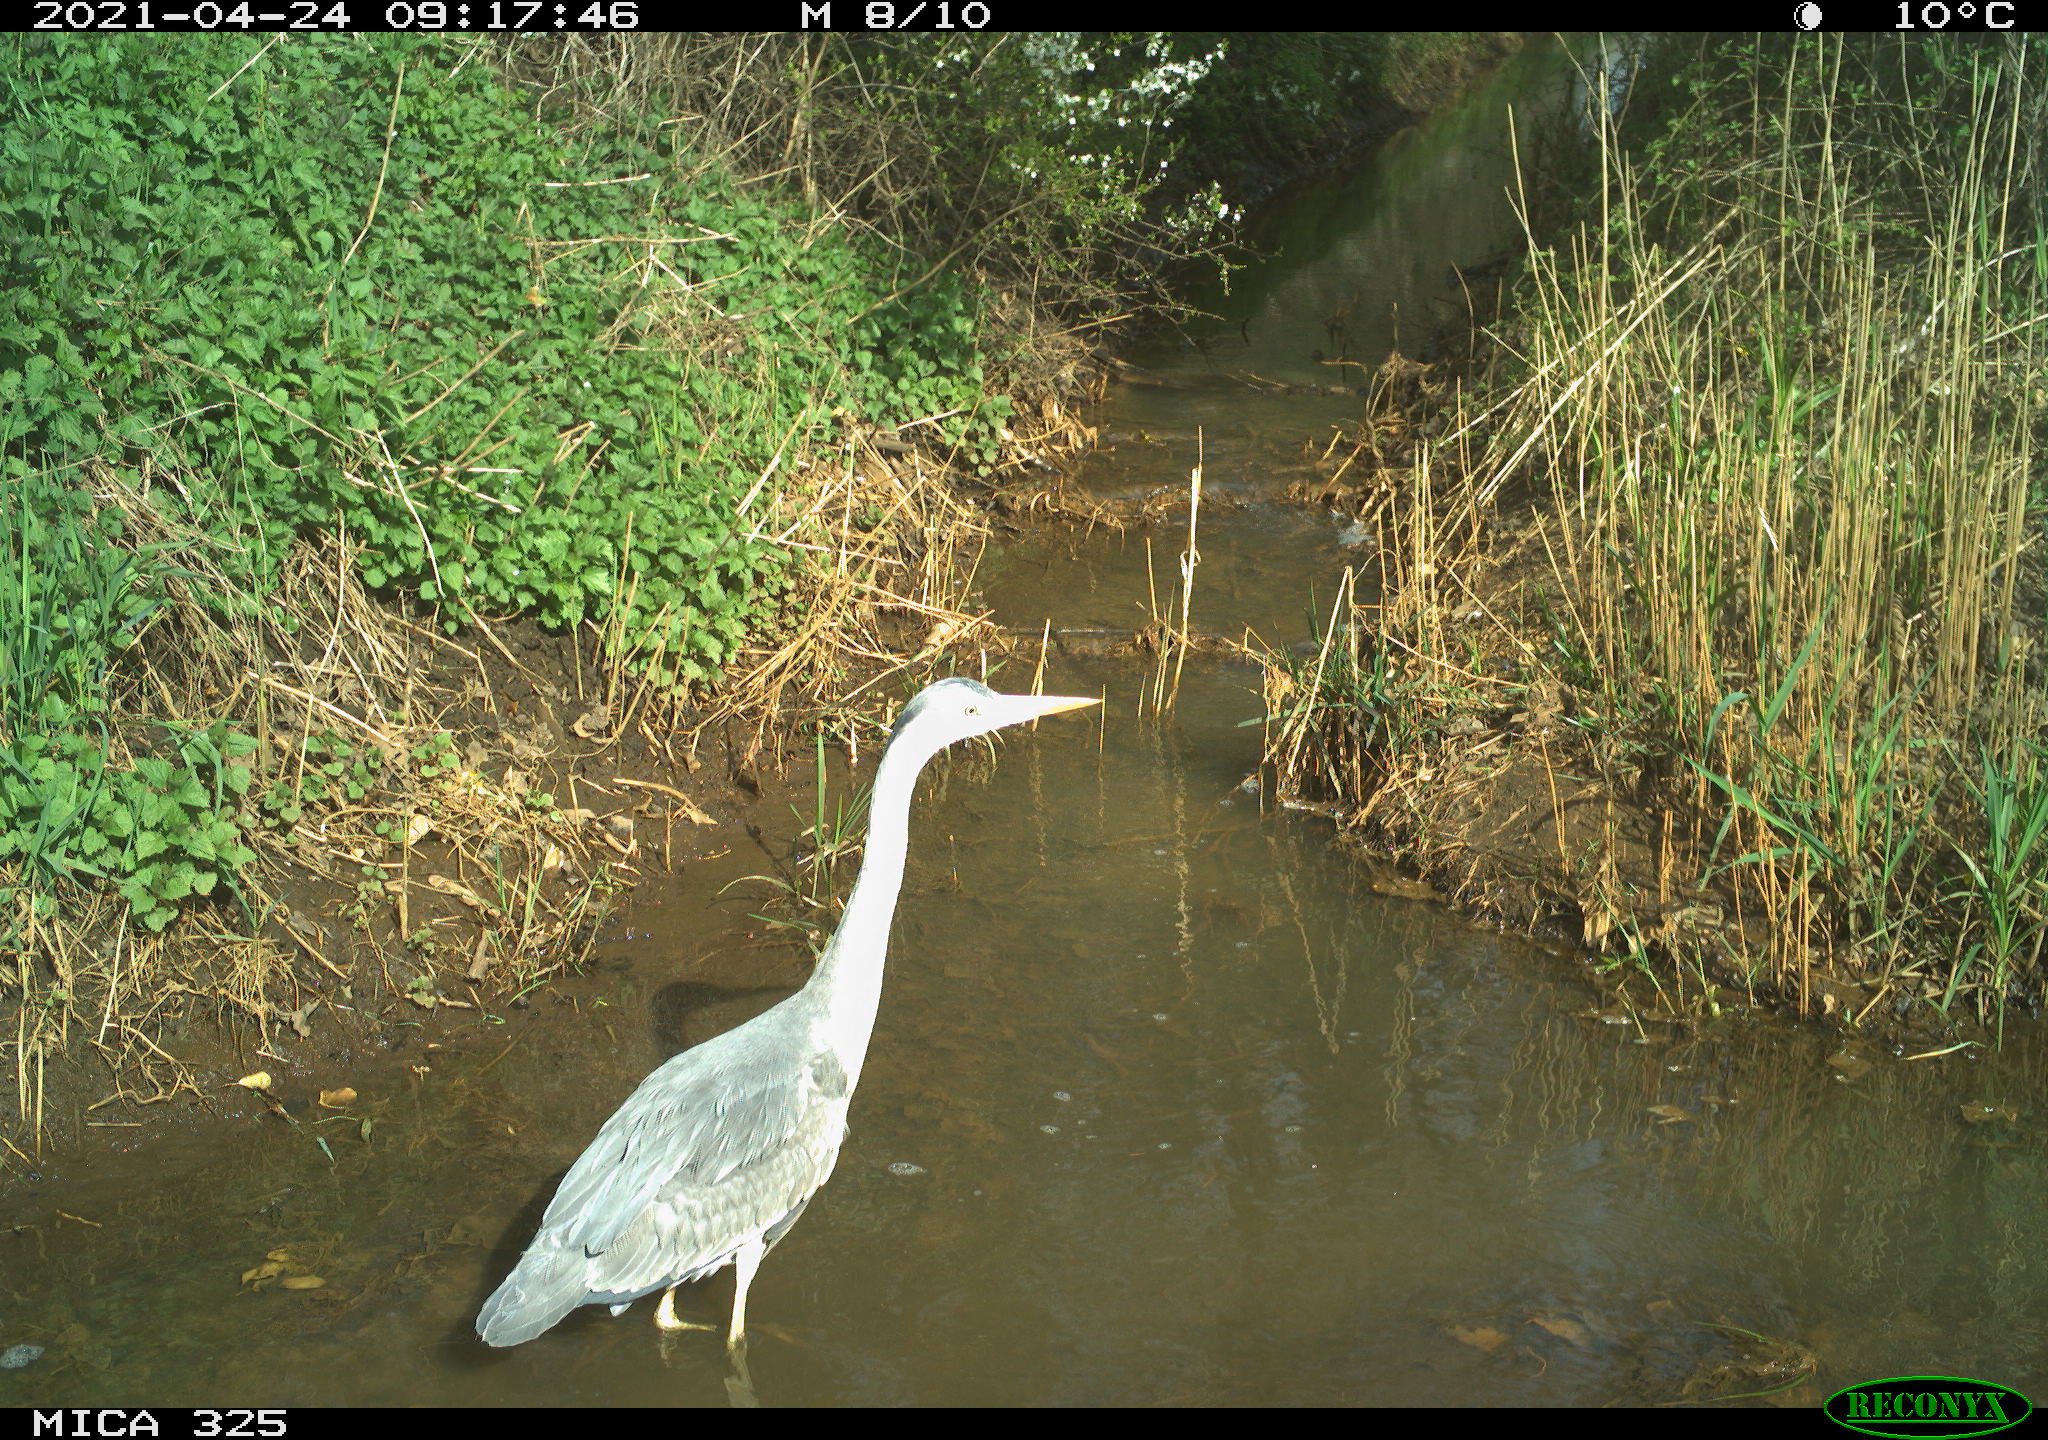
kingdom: Animalia
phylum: Chordata
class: Aves
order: Pelecaniformes
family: Ardeidae
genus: Ardea
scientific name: Ardea cinerea
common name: Grey heron
